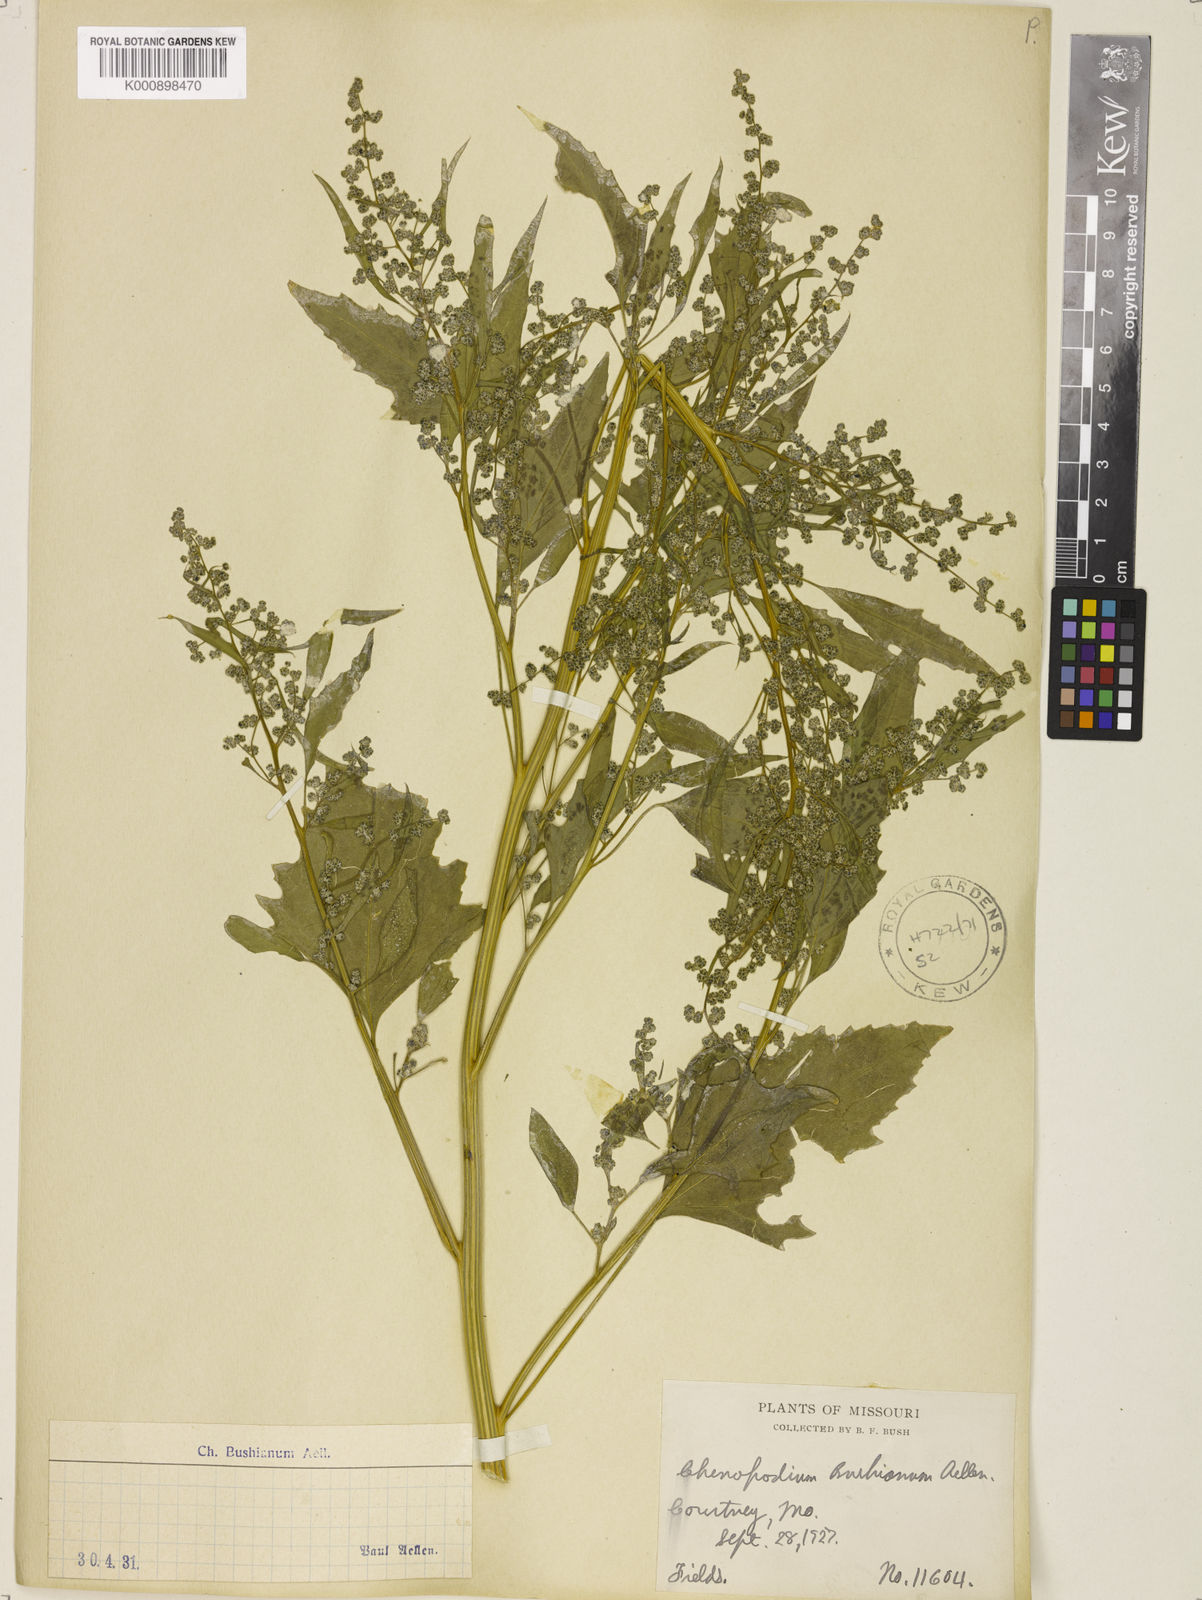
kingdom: Plantae
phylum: Tracheophyta
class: Magnoliopsida
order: Caryophyllales
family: Amaranthaceae
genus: Chenopodium
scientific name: Chenopodium berlandieri
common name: Pit-seed goosefoot
